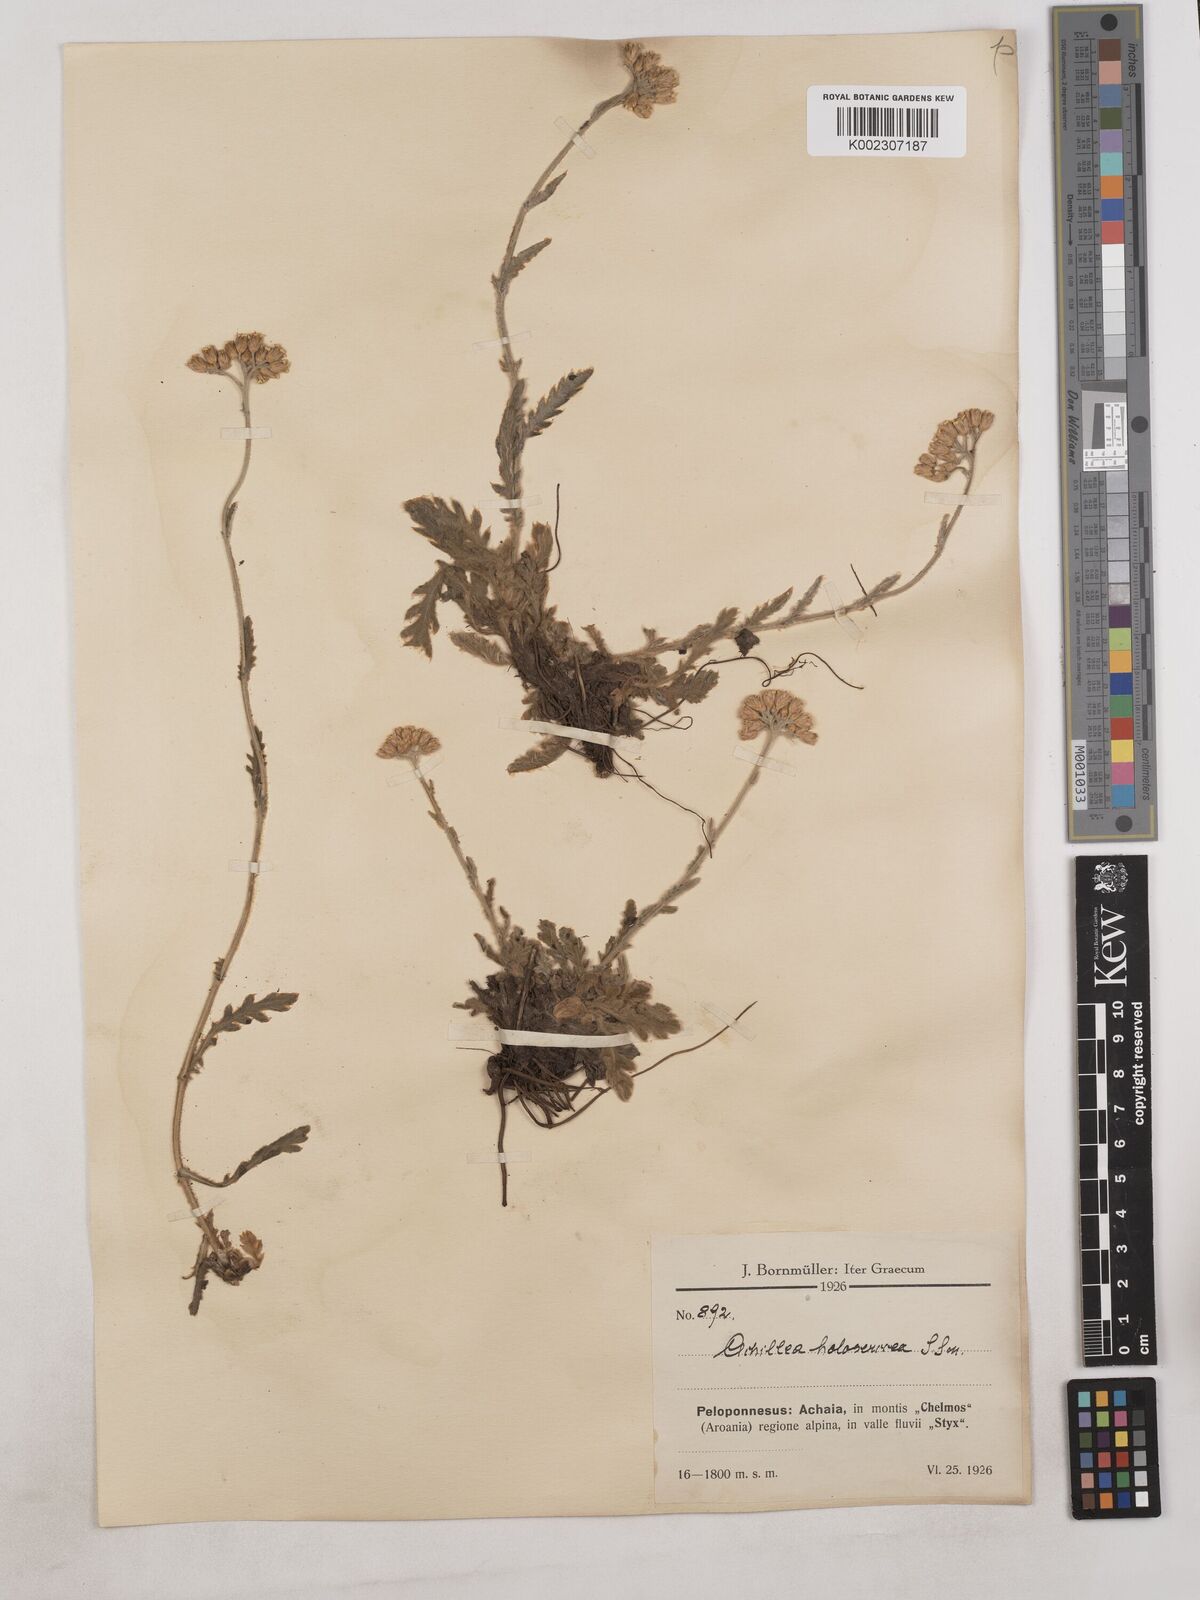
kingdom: Plantae
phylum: Tracheophyta
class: Magnoliopsida
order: Asterales
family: Asteraceae
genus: Achillea
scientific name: Achillea holosericea
